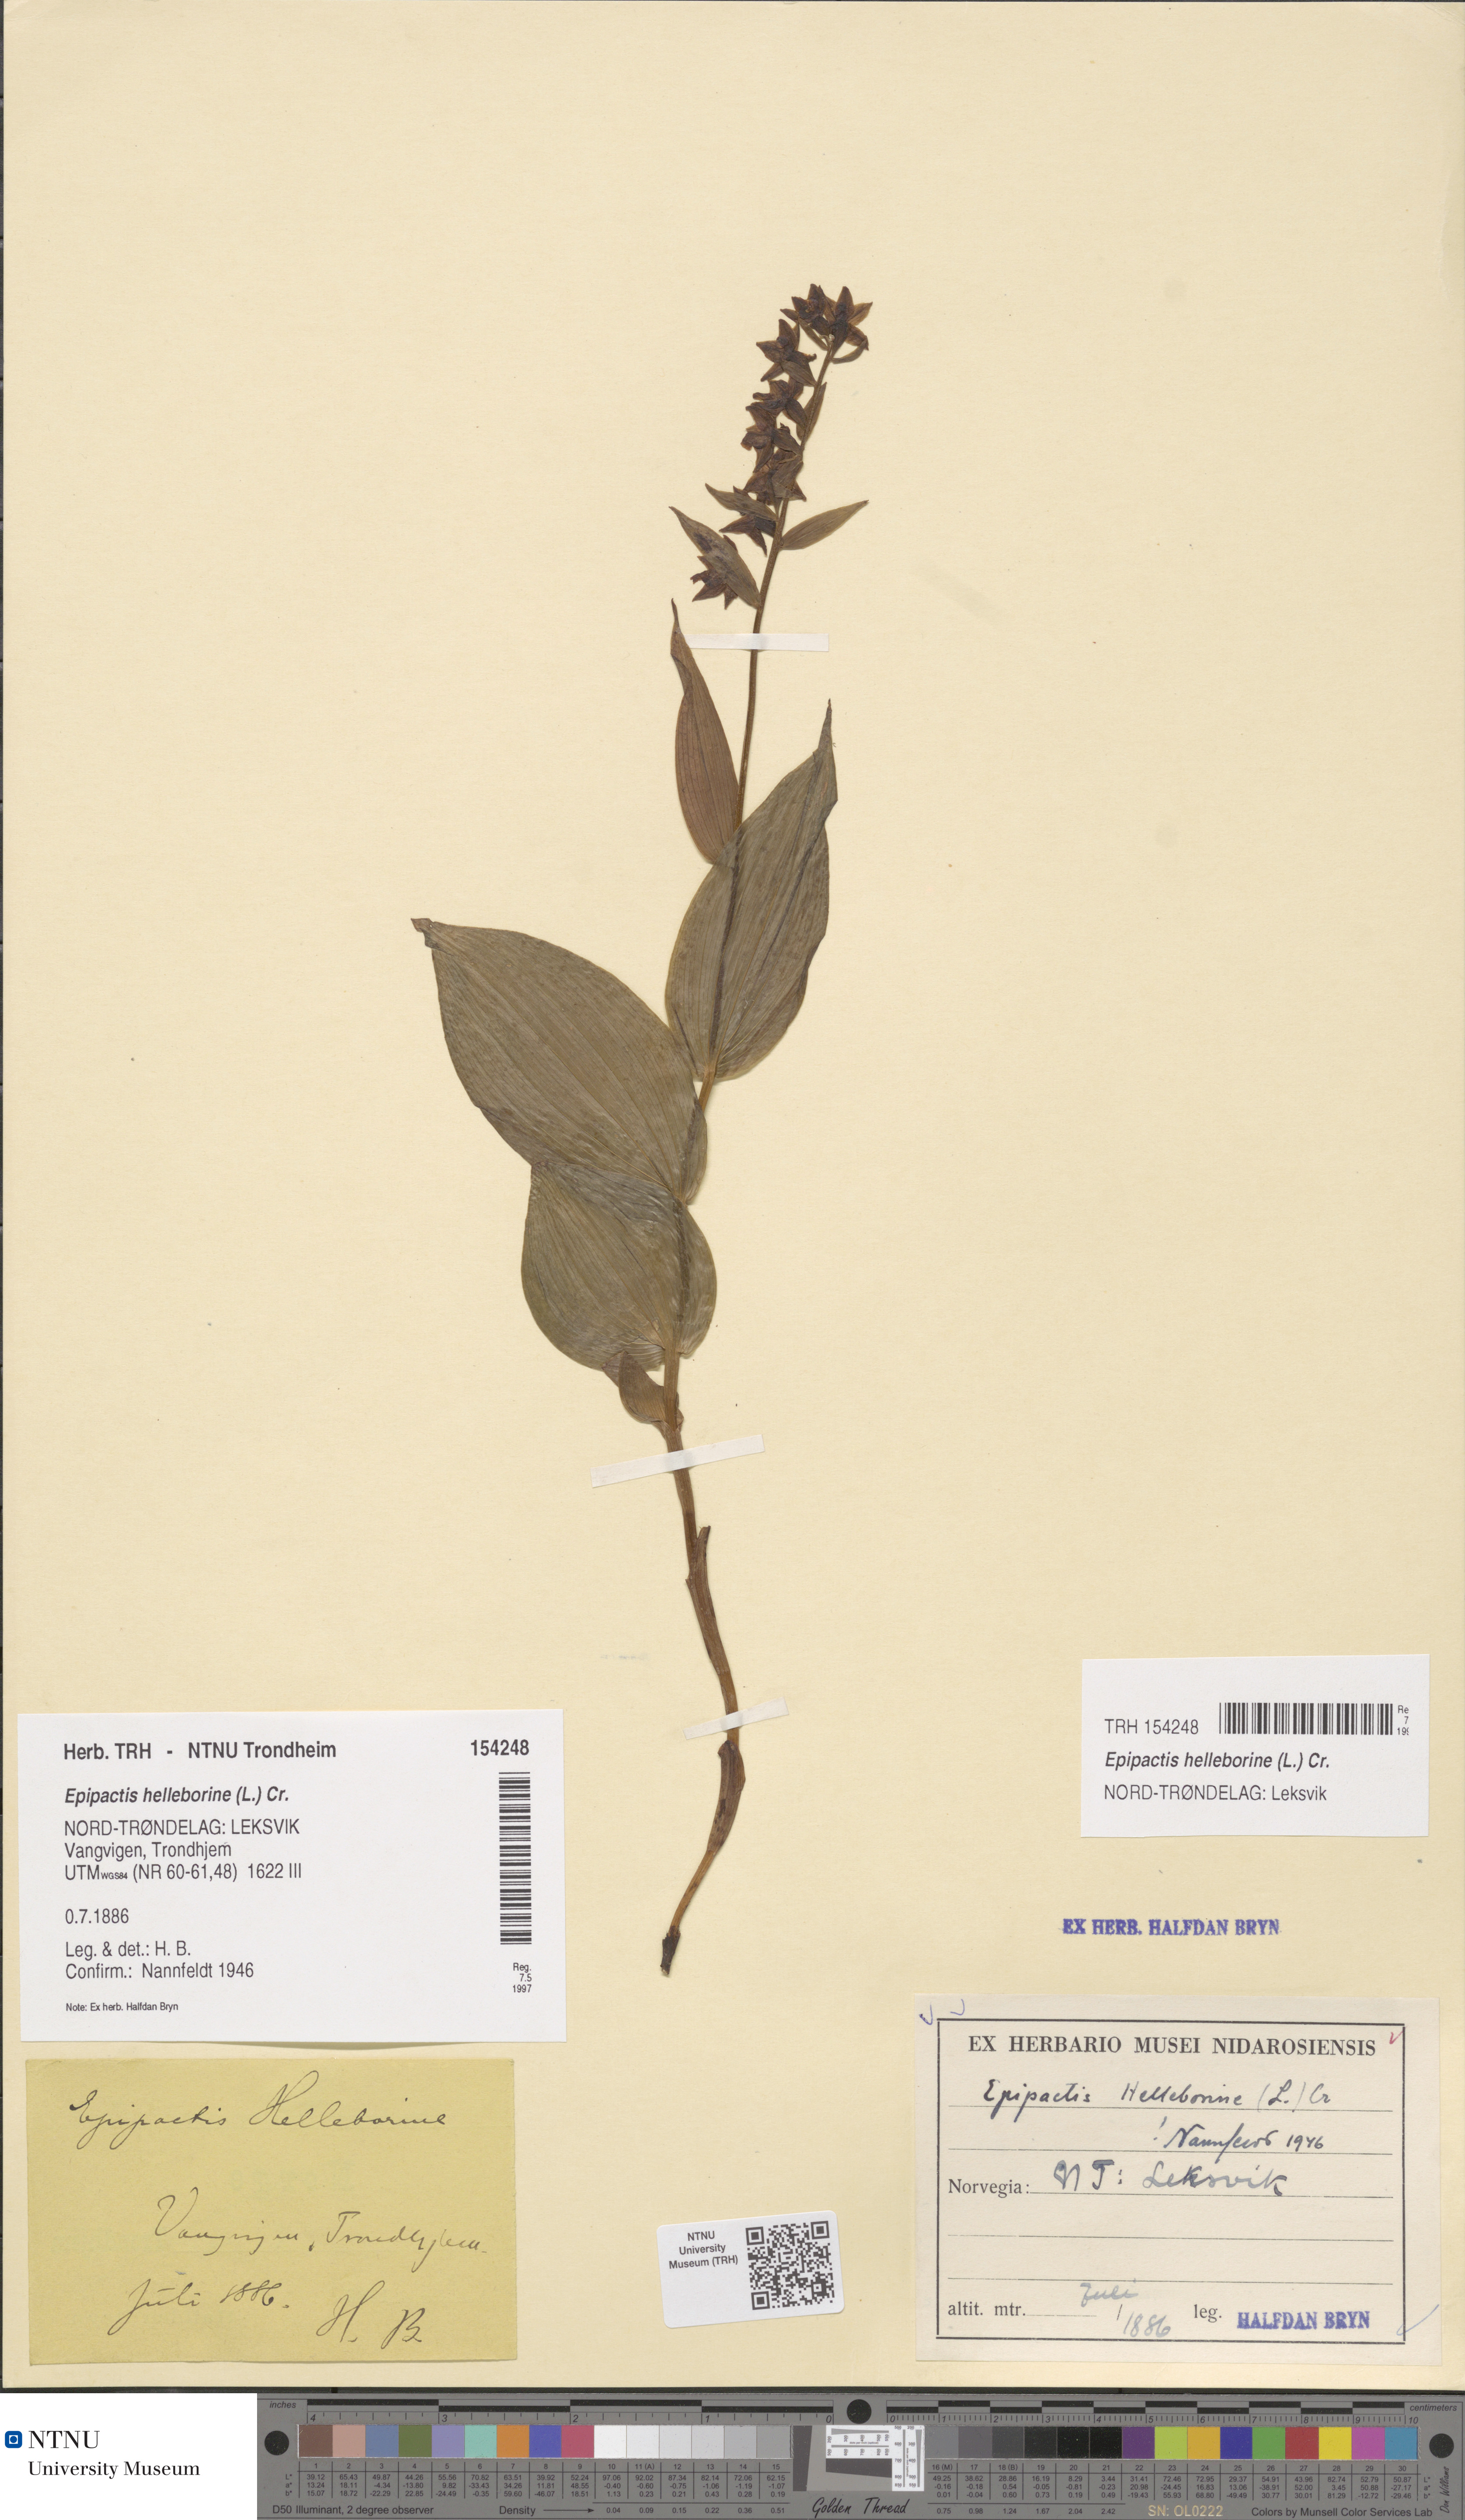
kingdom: Plantae
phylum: Tracheophyta
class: Liliopsida
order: Asparagales
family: Orchidaceae
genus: Epipactis
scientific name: Epipactis helleborine
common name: Broad-leaved helleborine
